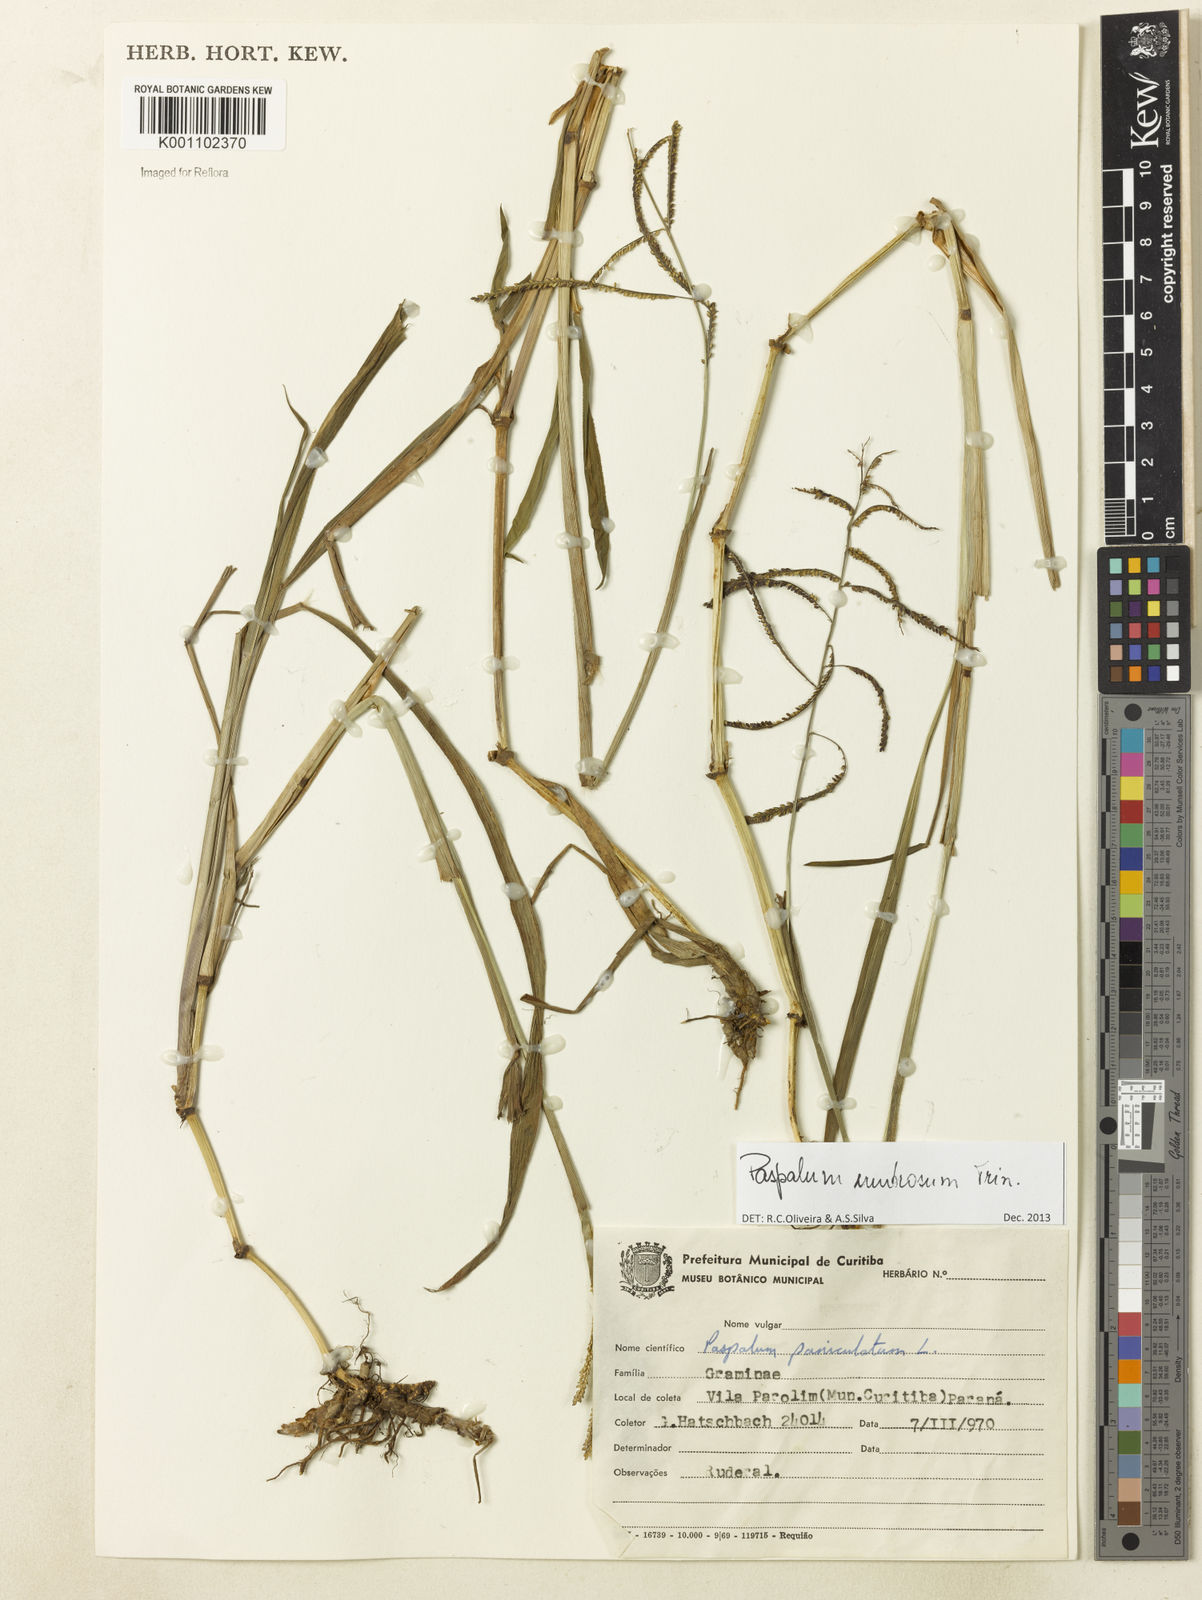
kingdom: Plantae
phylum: Tracheophyta
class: Liliopsida
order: Poales
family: Poaceae
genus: Paspalum
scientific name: Paspalum umbrosum
